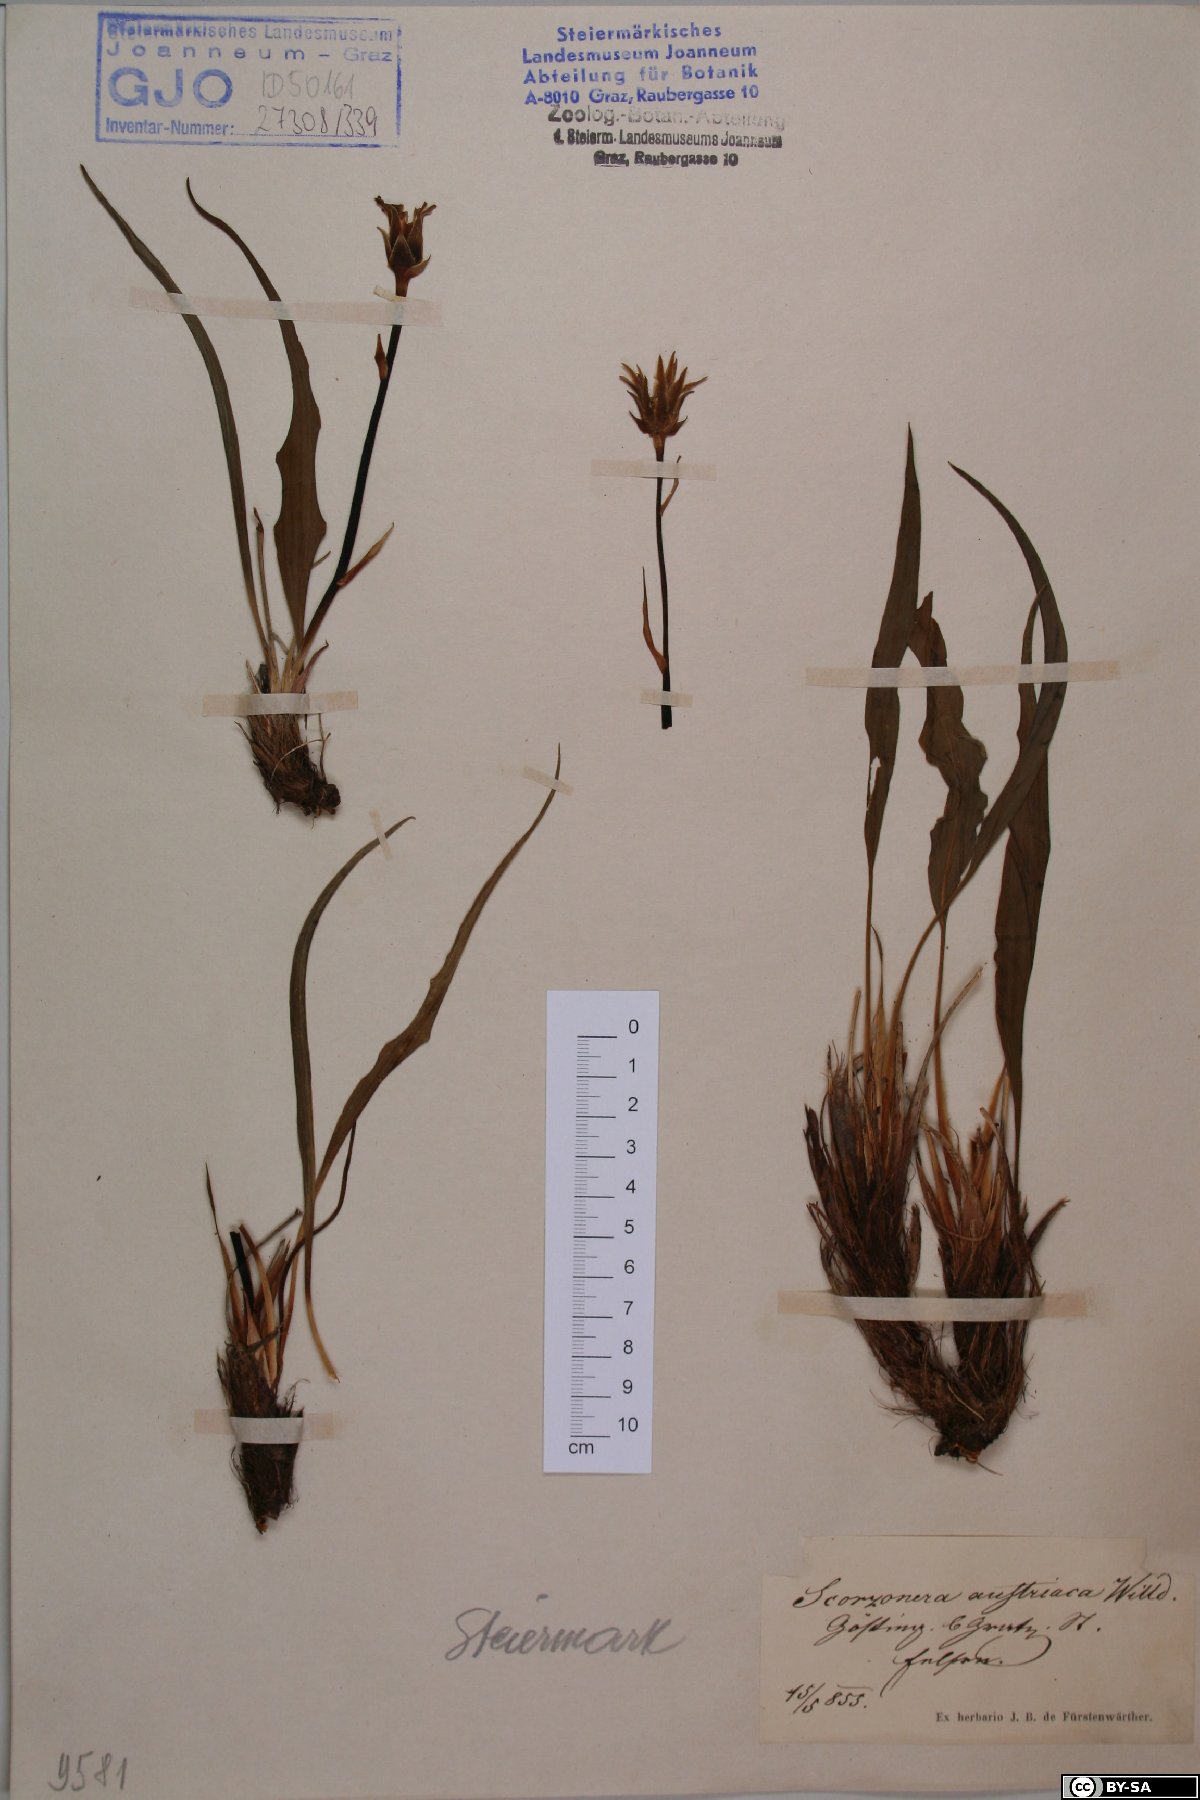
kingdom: Plantae
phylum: Tracheophyta
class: Magnoliopsida
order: Asterales
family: Asteraceae
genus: Takhtajaniantha
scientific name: Takhtajaniantha austriaca
